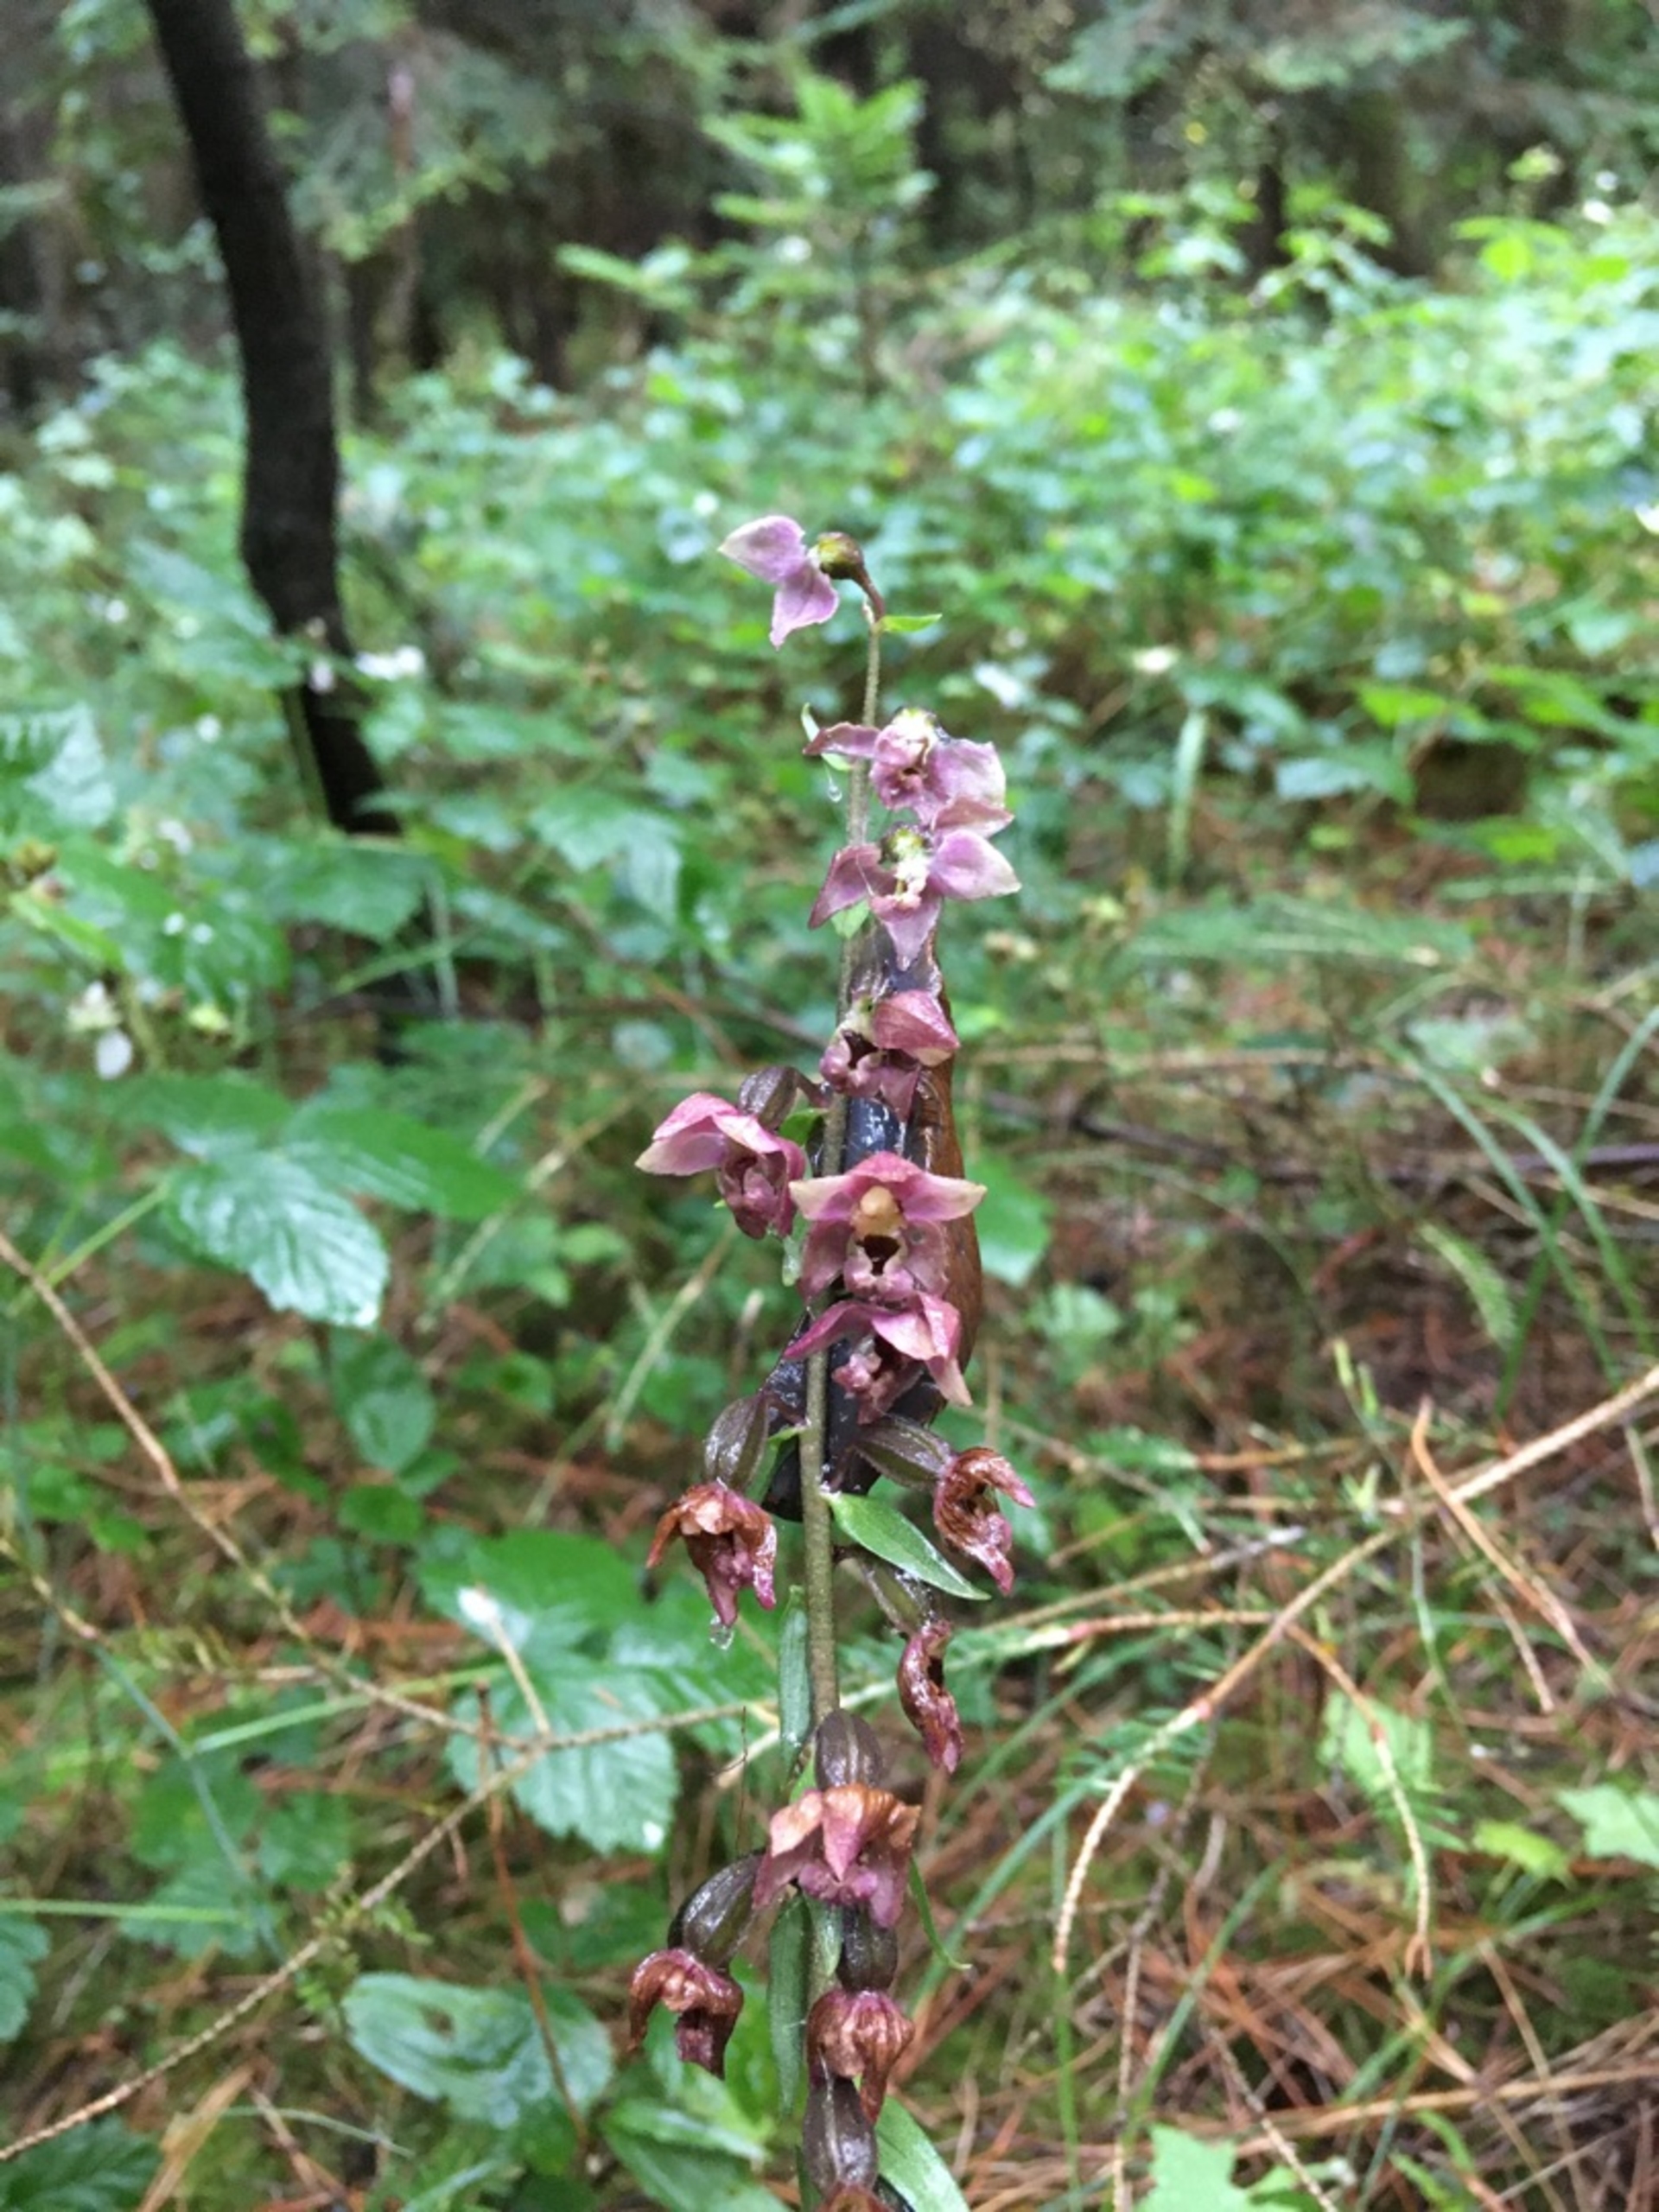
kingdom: Plantae
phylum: Tracheophyta
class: Liliopsida
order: Asparagales
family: Orchidaceae
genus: Epipactis
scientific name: Epipactis atrorubens
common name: Rød hullæbe
